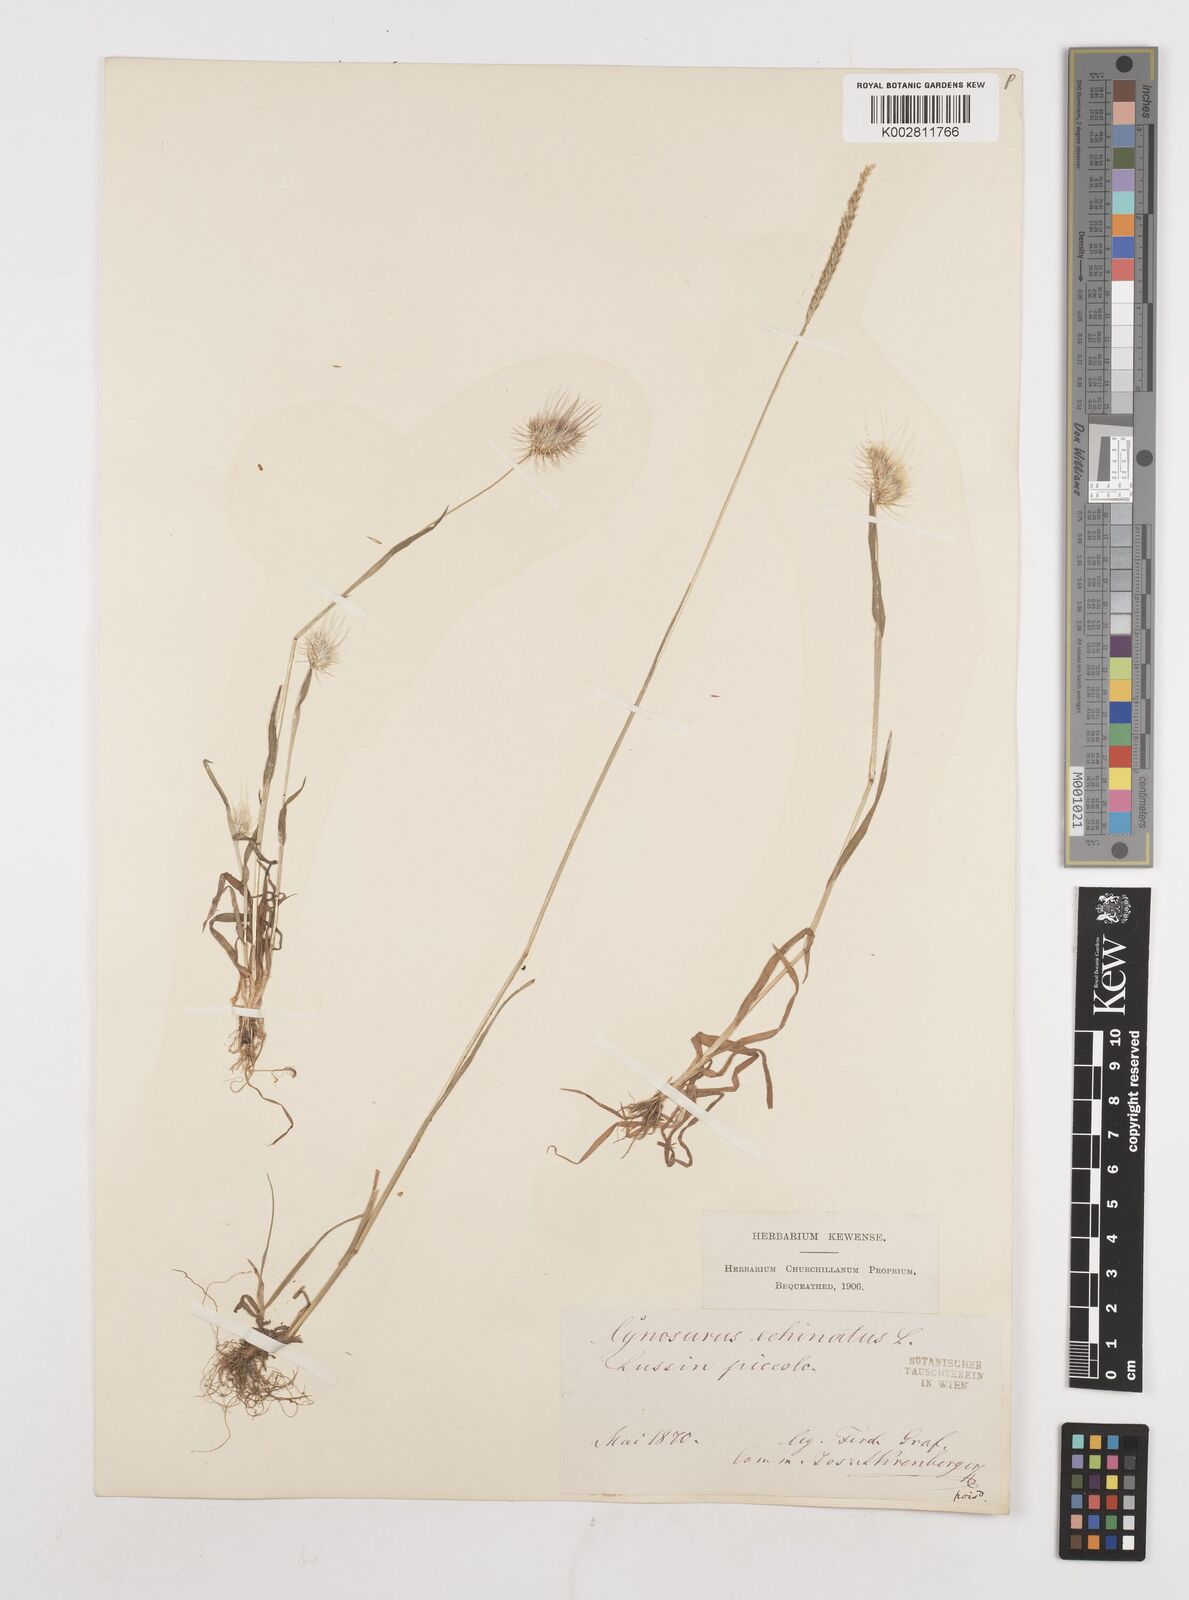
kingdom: Plantae
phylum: Tracheophyta
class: Liliopsida
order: Poales
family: Poaceae
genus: Cynosurus
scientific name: Cynosurus echinatus
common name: Rough dog's-tail
